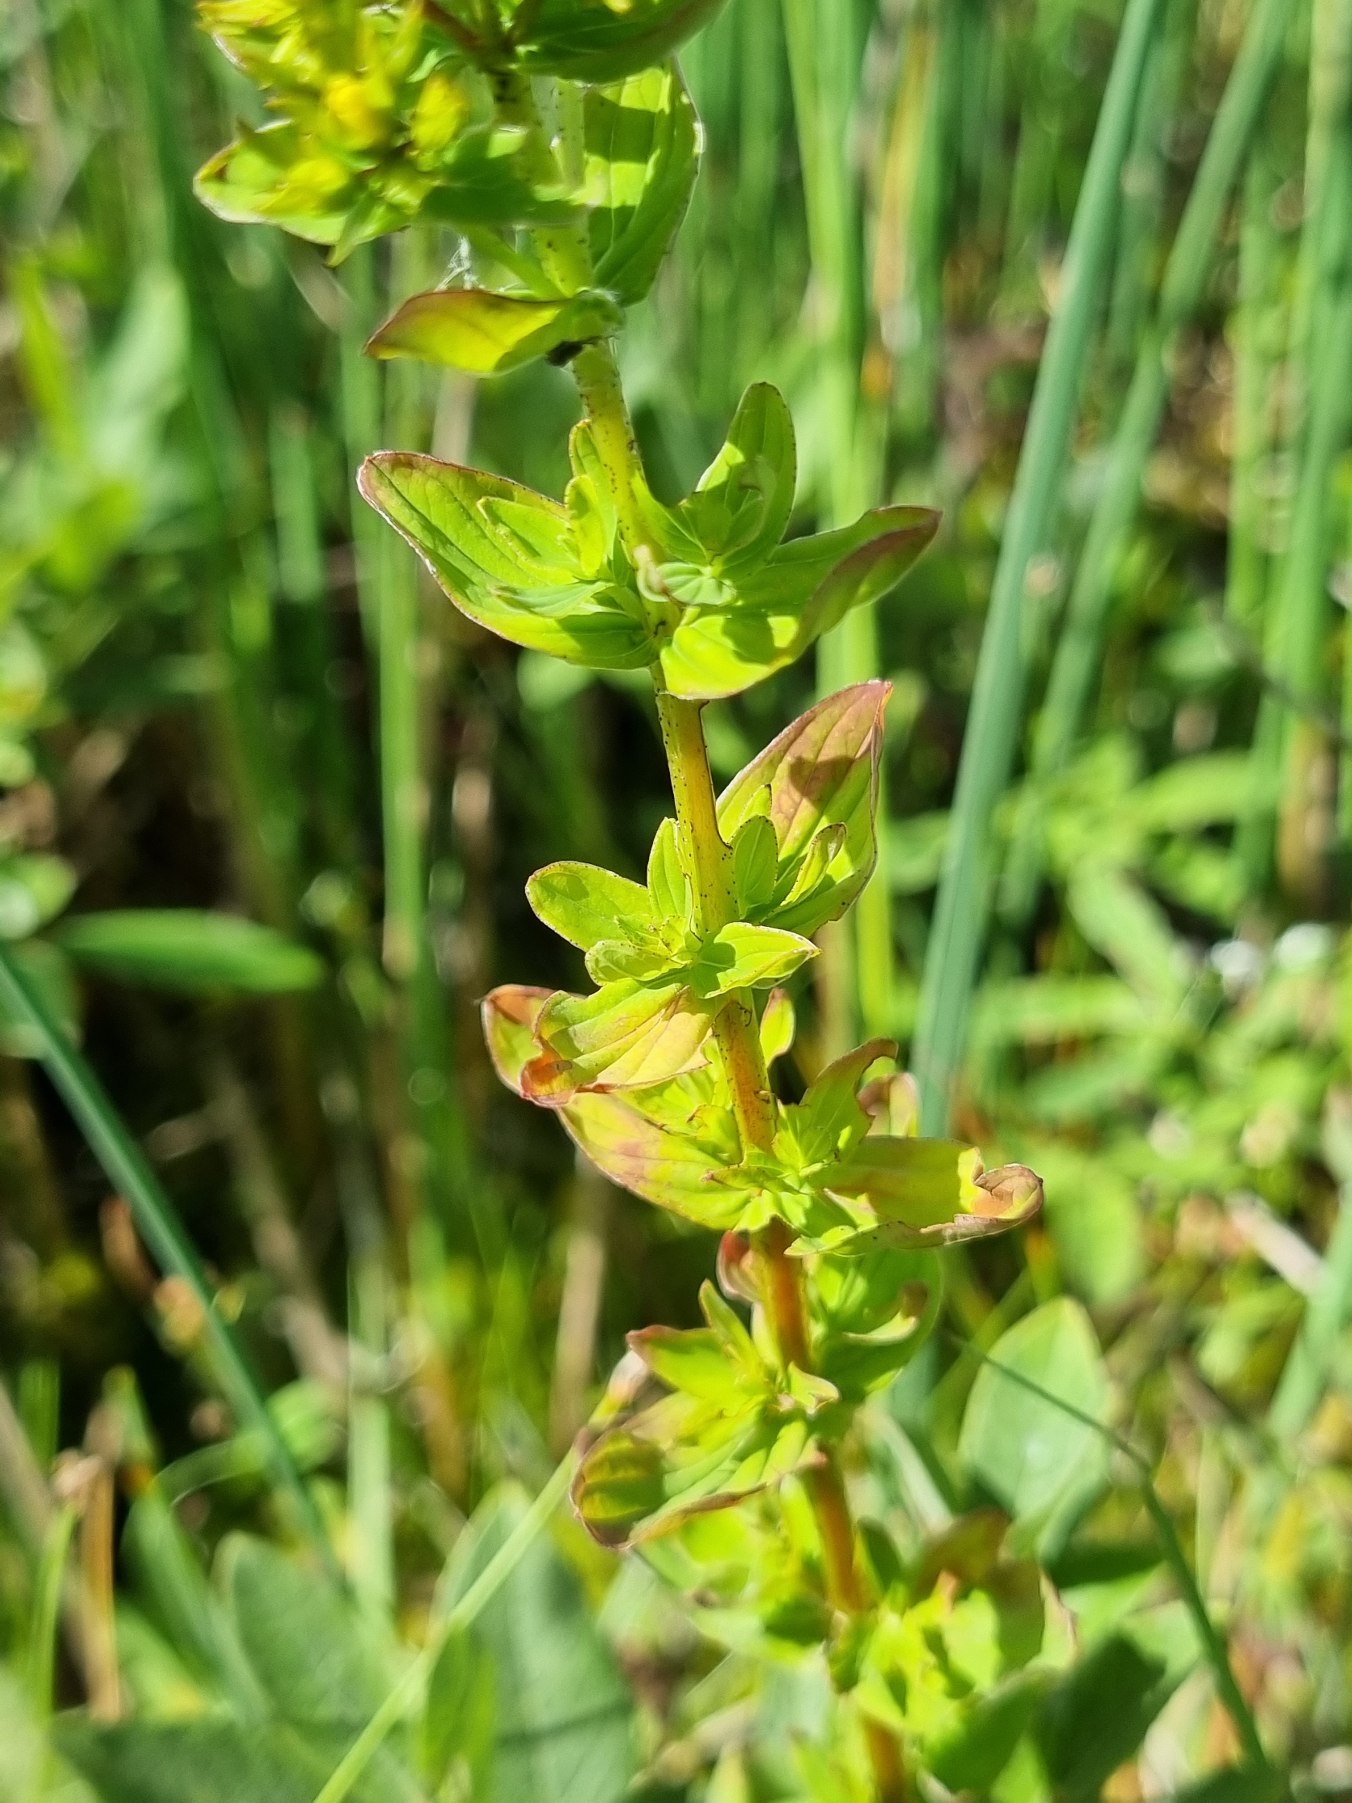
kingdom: Plantae
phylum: Tracheophyta
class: Magnoliopsida
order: Malpighiales
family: Hypericaceae
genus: Hypericum
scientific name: Hypericum tetrapterum
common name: Vinget perikon
